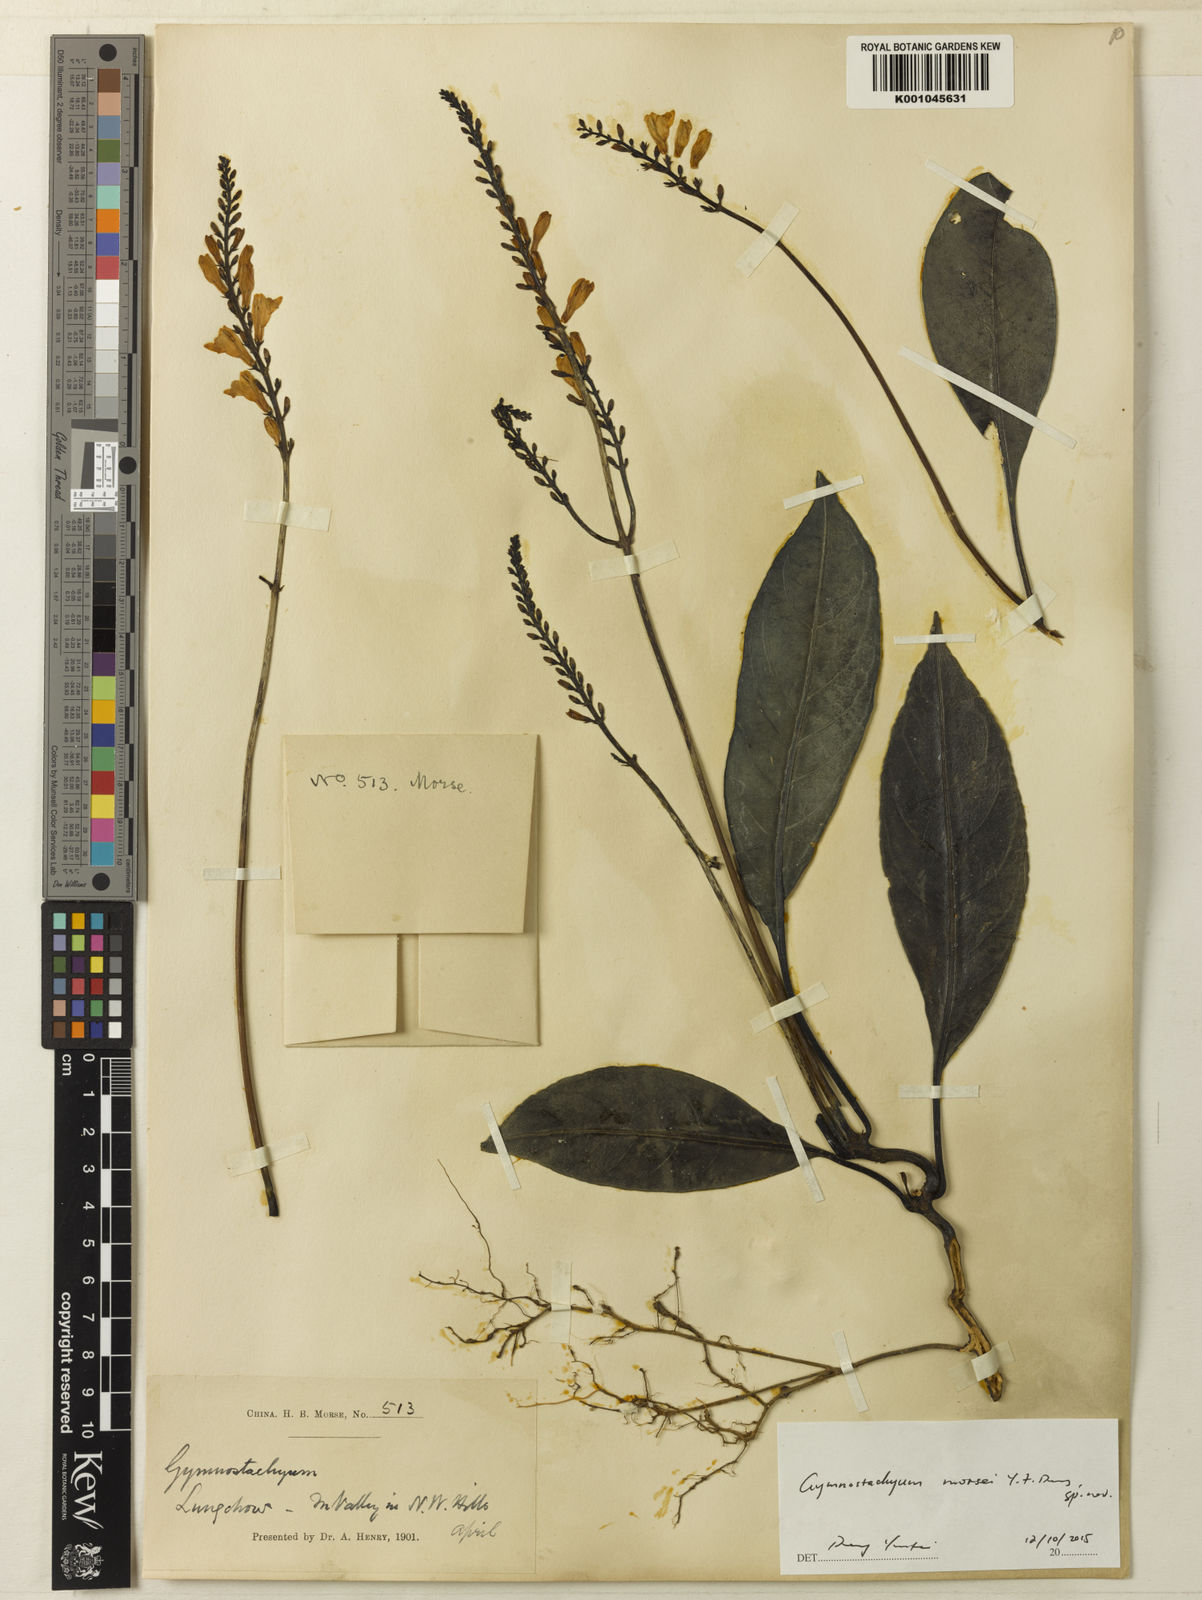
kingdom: Plantae
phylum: Tracheophyta
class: Magnoliopsida
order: Lamiales
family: Acanthaceae
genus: Gymnostachyum
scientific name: Gymnostachyum
